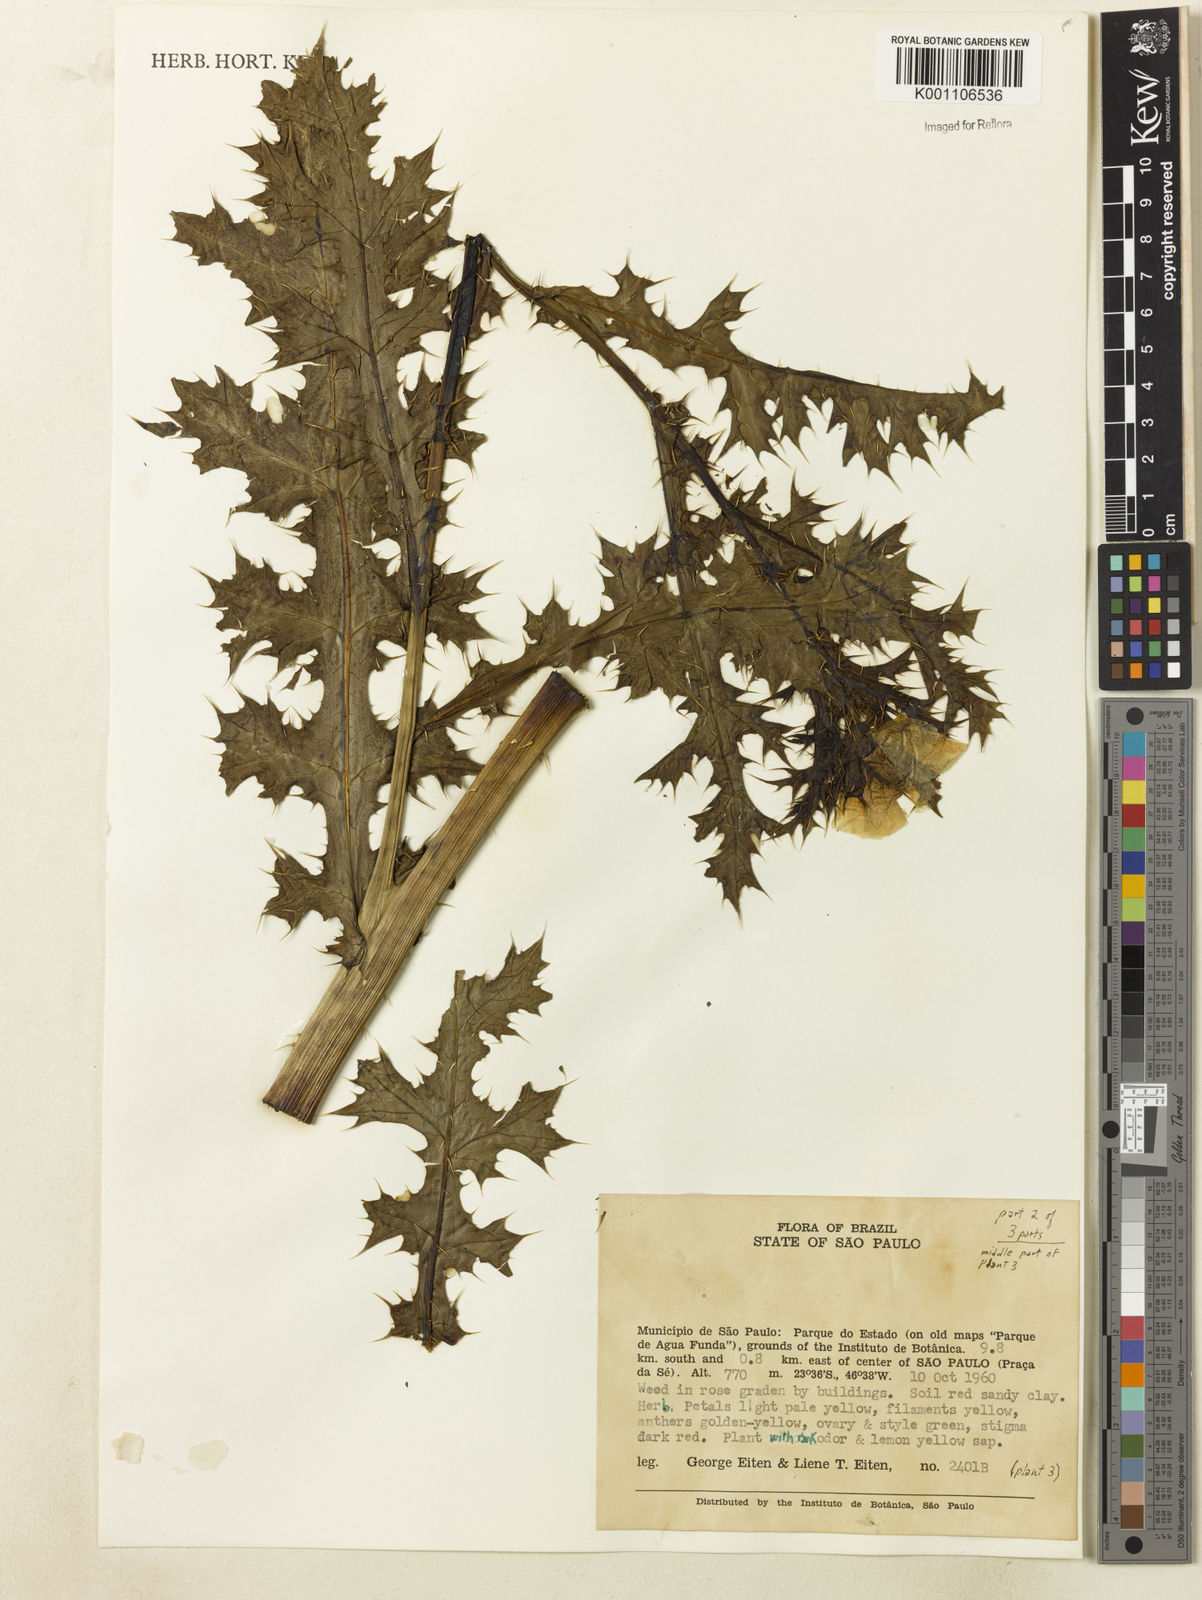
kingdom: Plantae
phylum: Tracheophyta
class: Magnoliopsida
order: Ranunculales
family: Papaveraceae
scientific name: Papaveraceae
